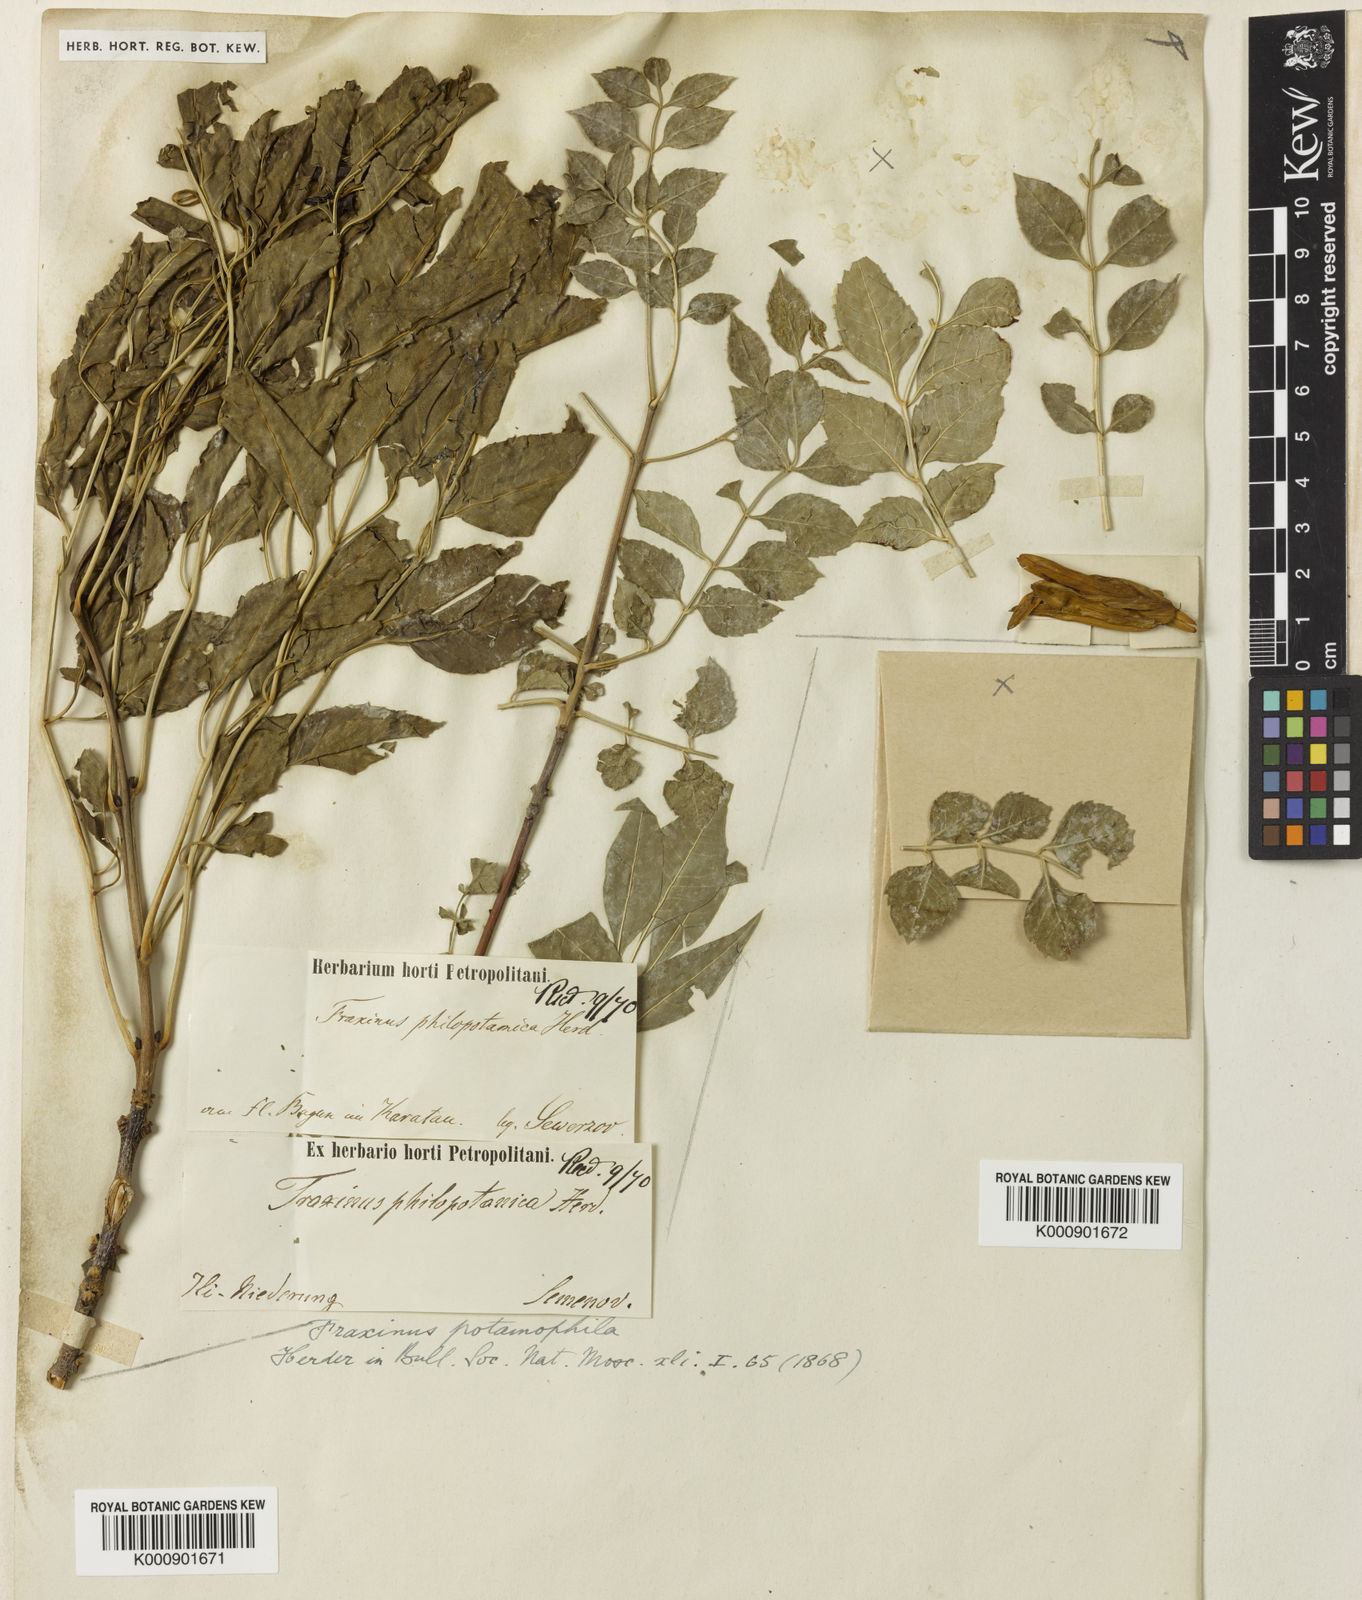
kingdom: Plantae
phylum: Tracheophyta
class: Magnoliopsida
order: Lamiales
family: Oleaceae
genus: Fraxinus
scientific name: Fraxinus angustifolia
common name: Narrow-leafed ash
